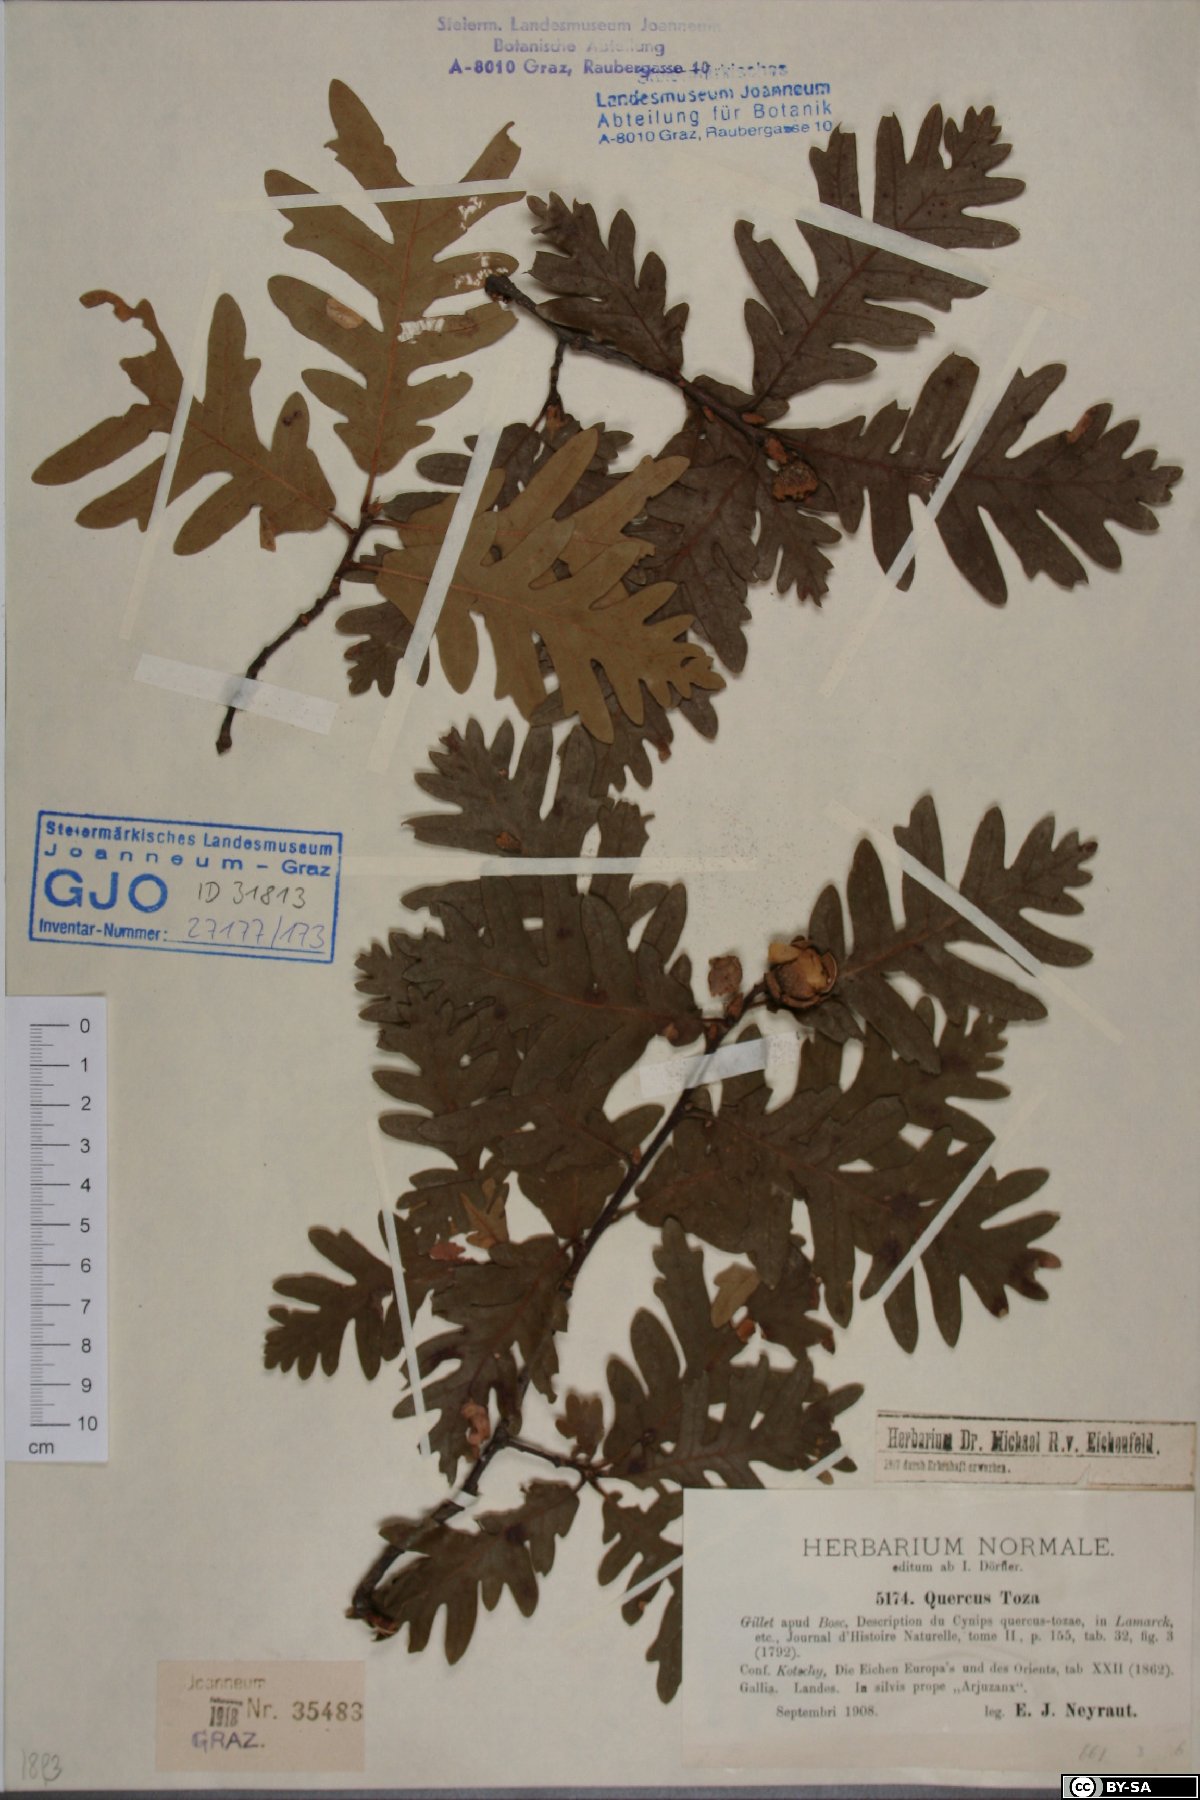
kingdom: Plantae
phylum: Tracheophyta
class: Magnoliopsida
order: Fagales
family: Fagaceae
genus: Quercus
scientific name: Quercus pyrenaica
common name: Pyrenean oak
